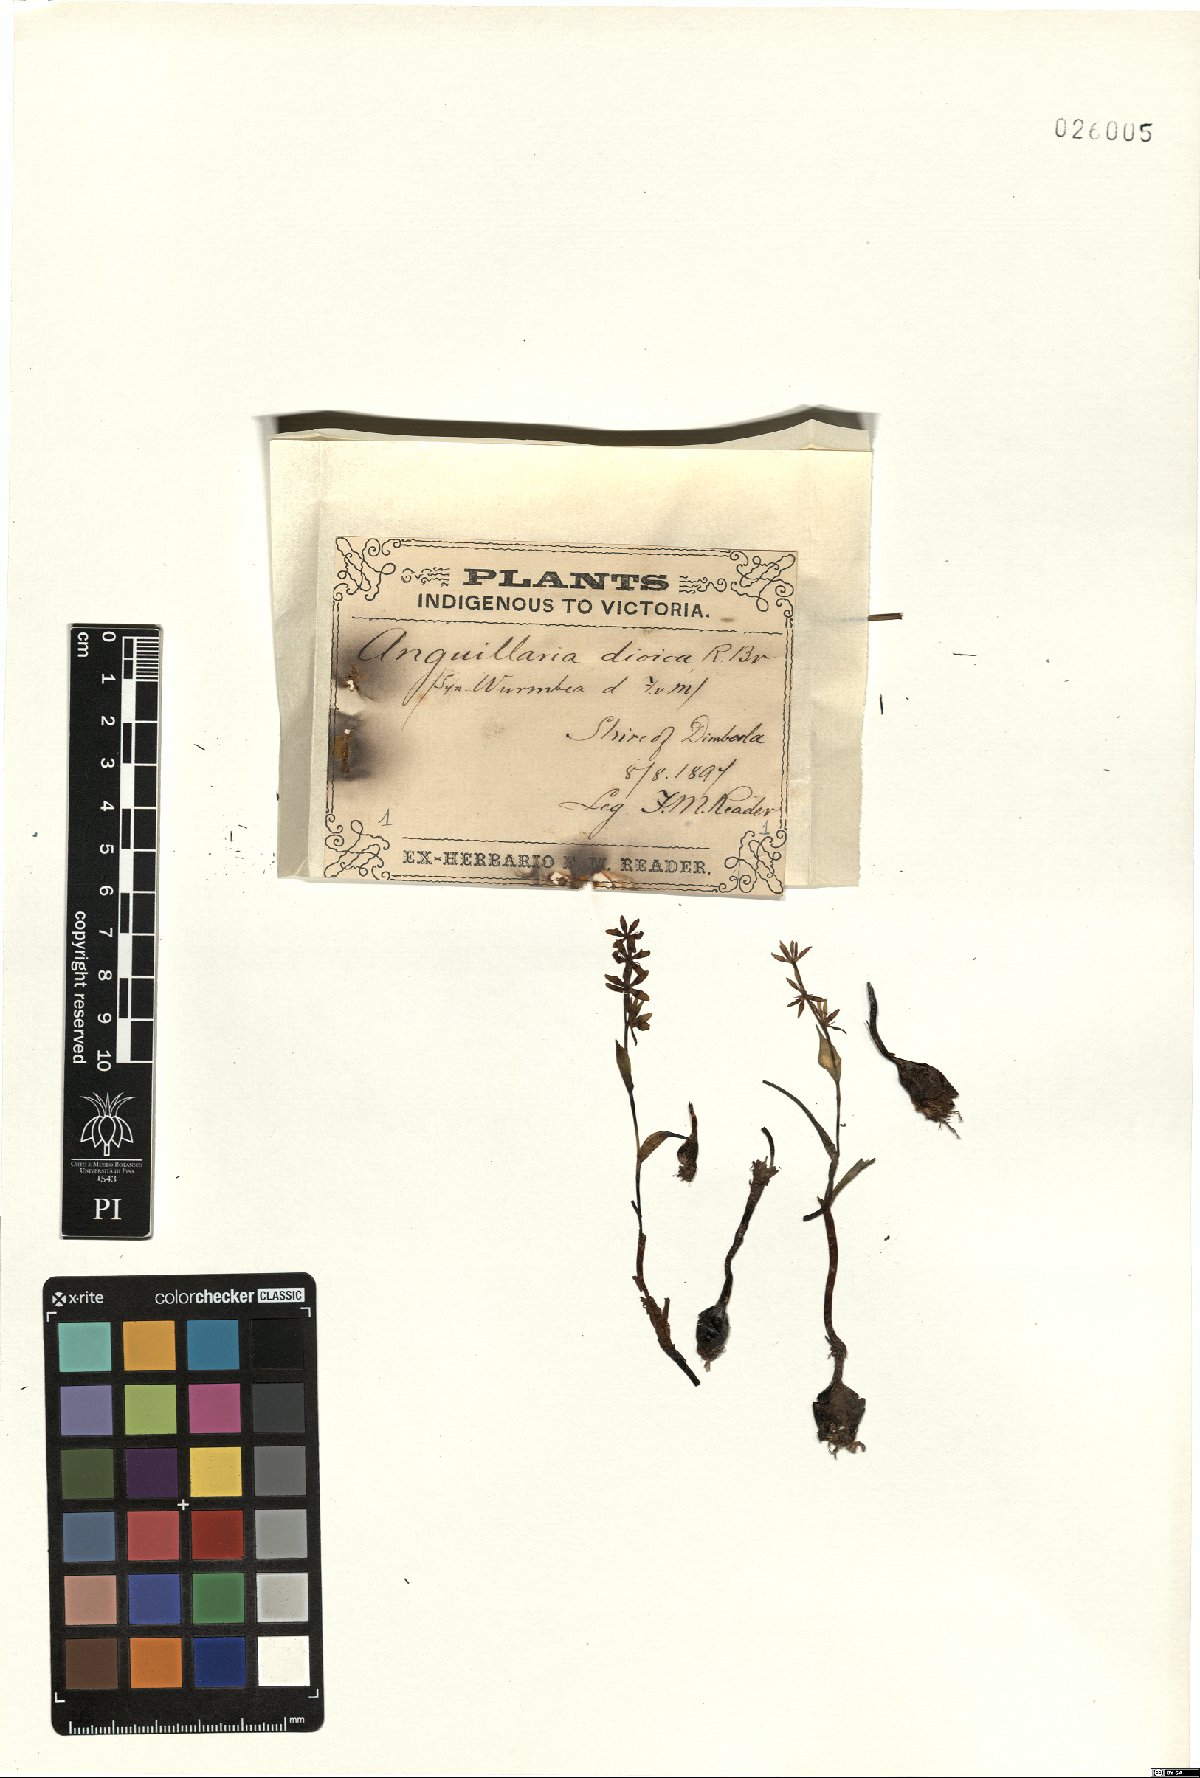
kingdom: Plantae
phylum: Tracheophyta
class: Liliopsida
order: Liliales
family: Colchicaceae
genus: Wurmbea
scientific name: Wurmbea dioica
